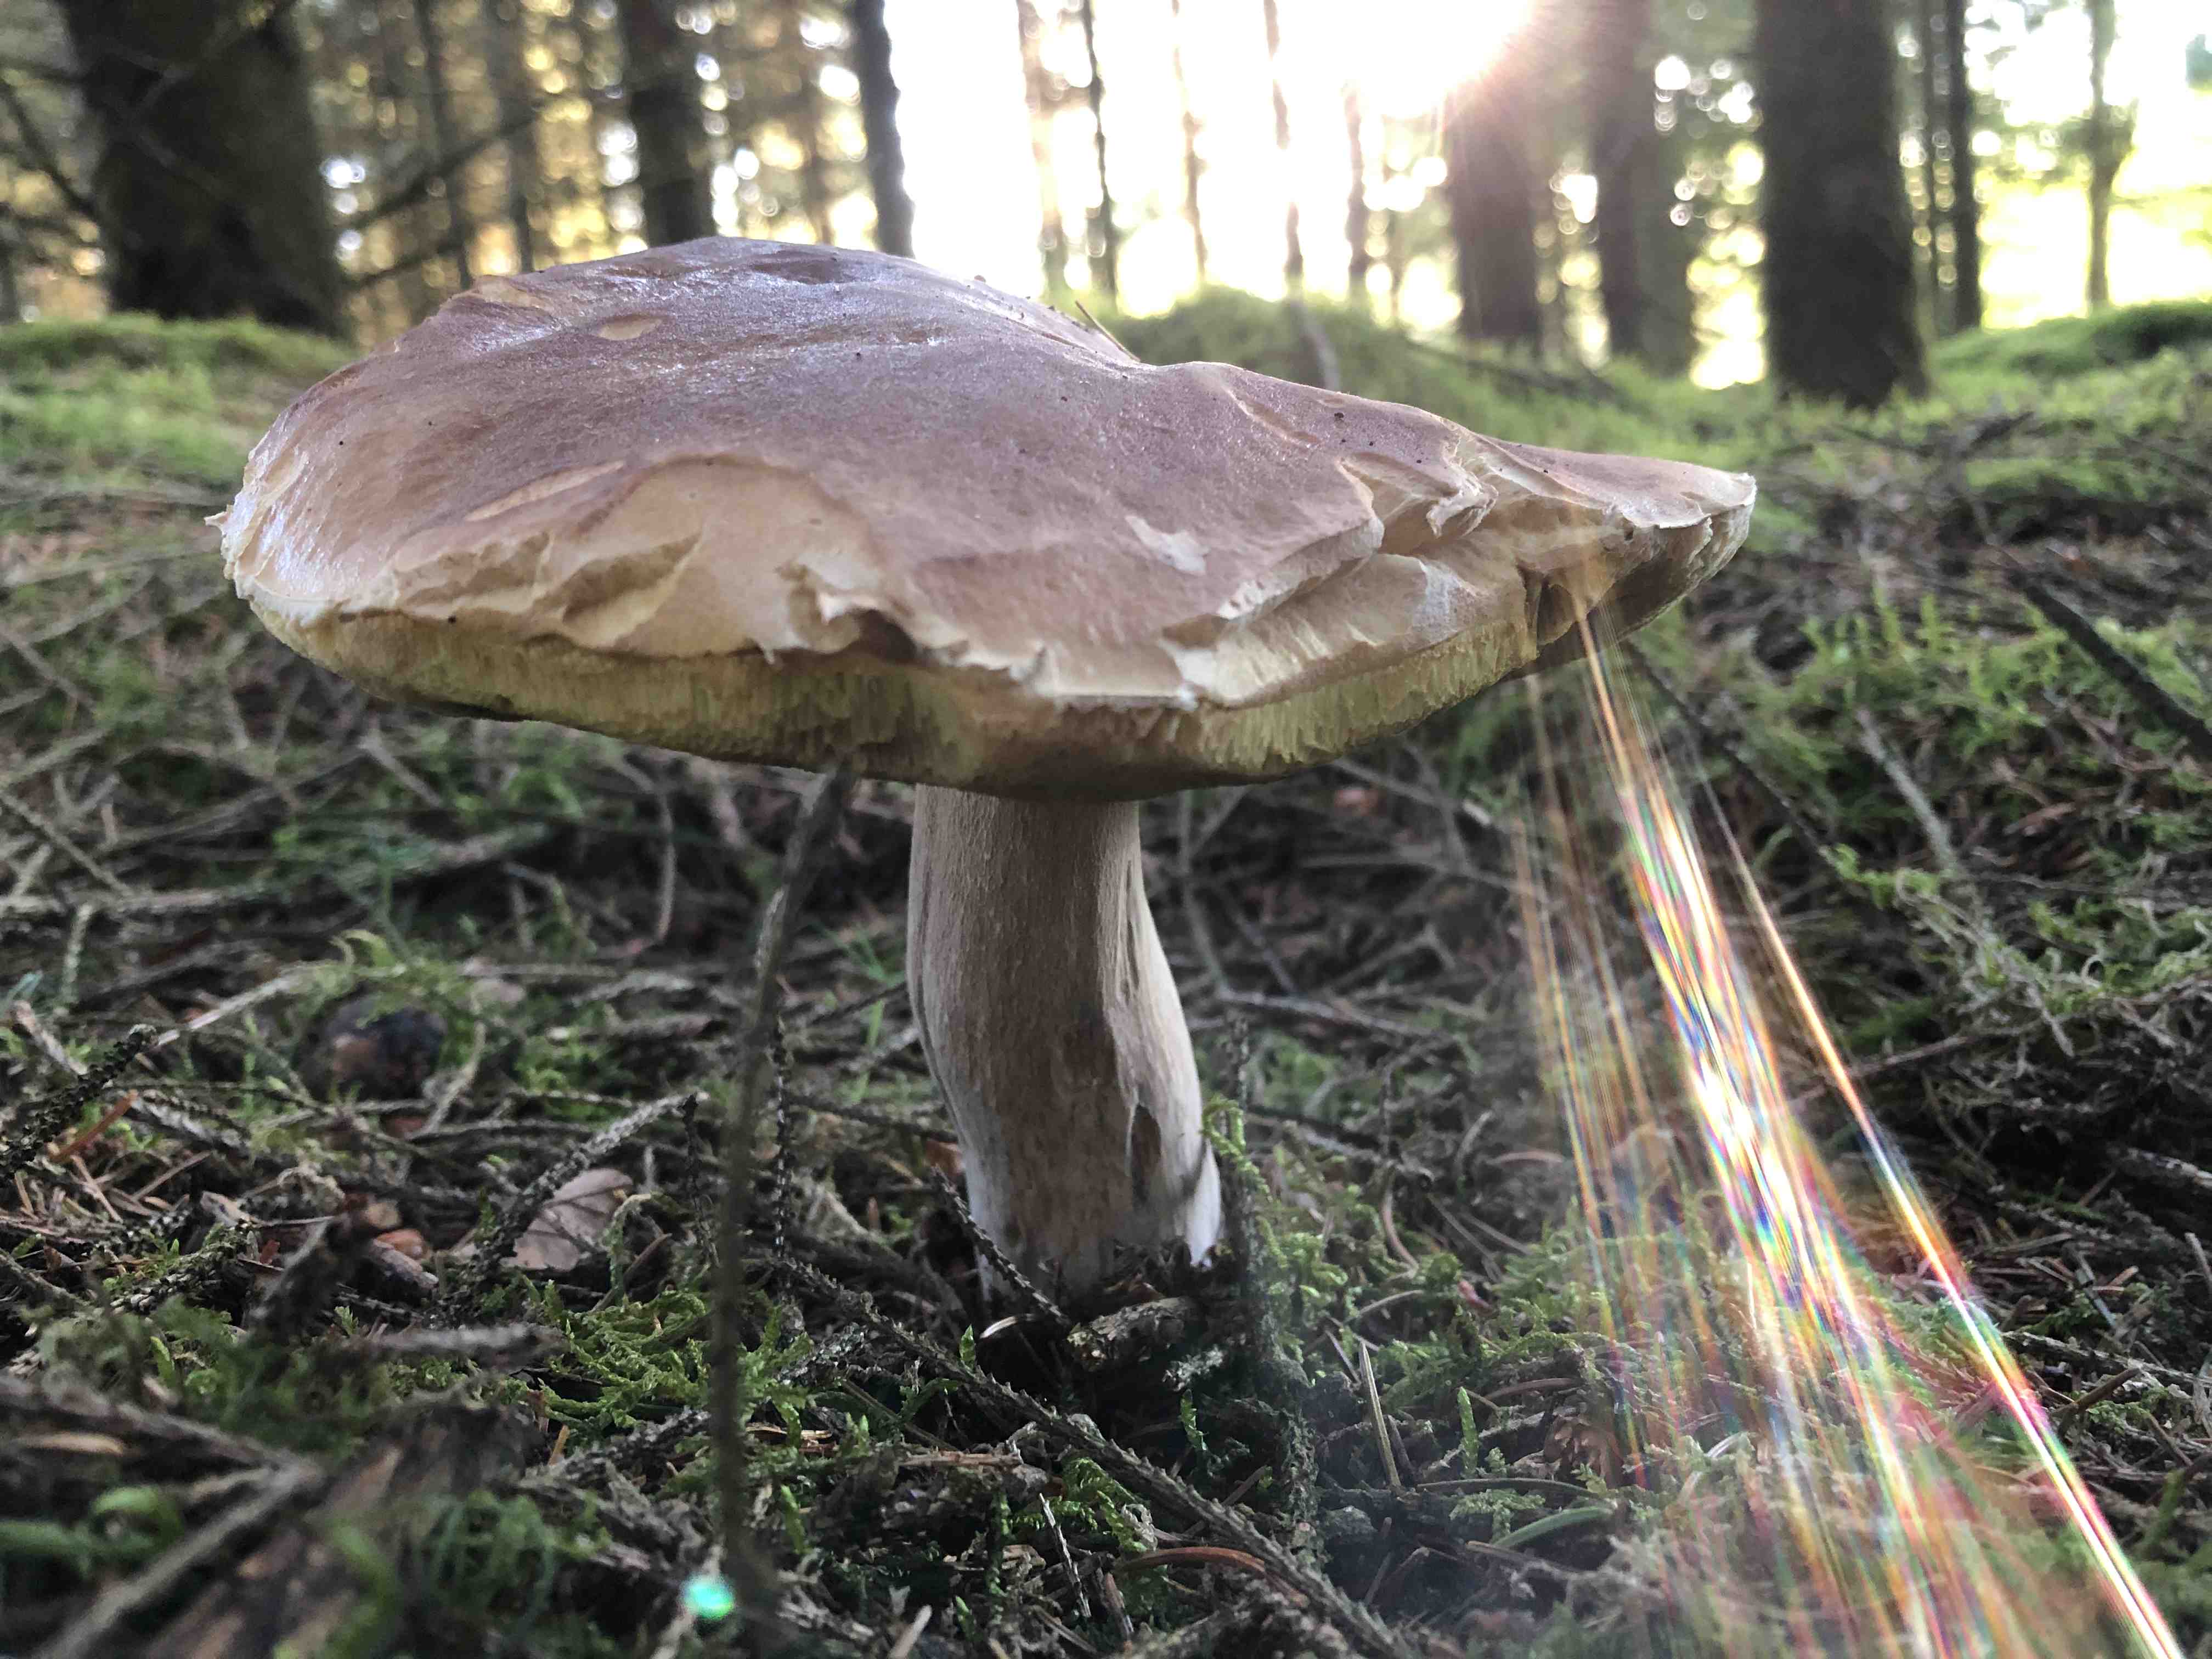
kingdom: Fungi
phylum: Basidiomycota
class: Agaricomycetes
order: Boletales
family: Boletaceae
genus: Boletus
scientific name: Boletus edulis
